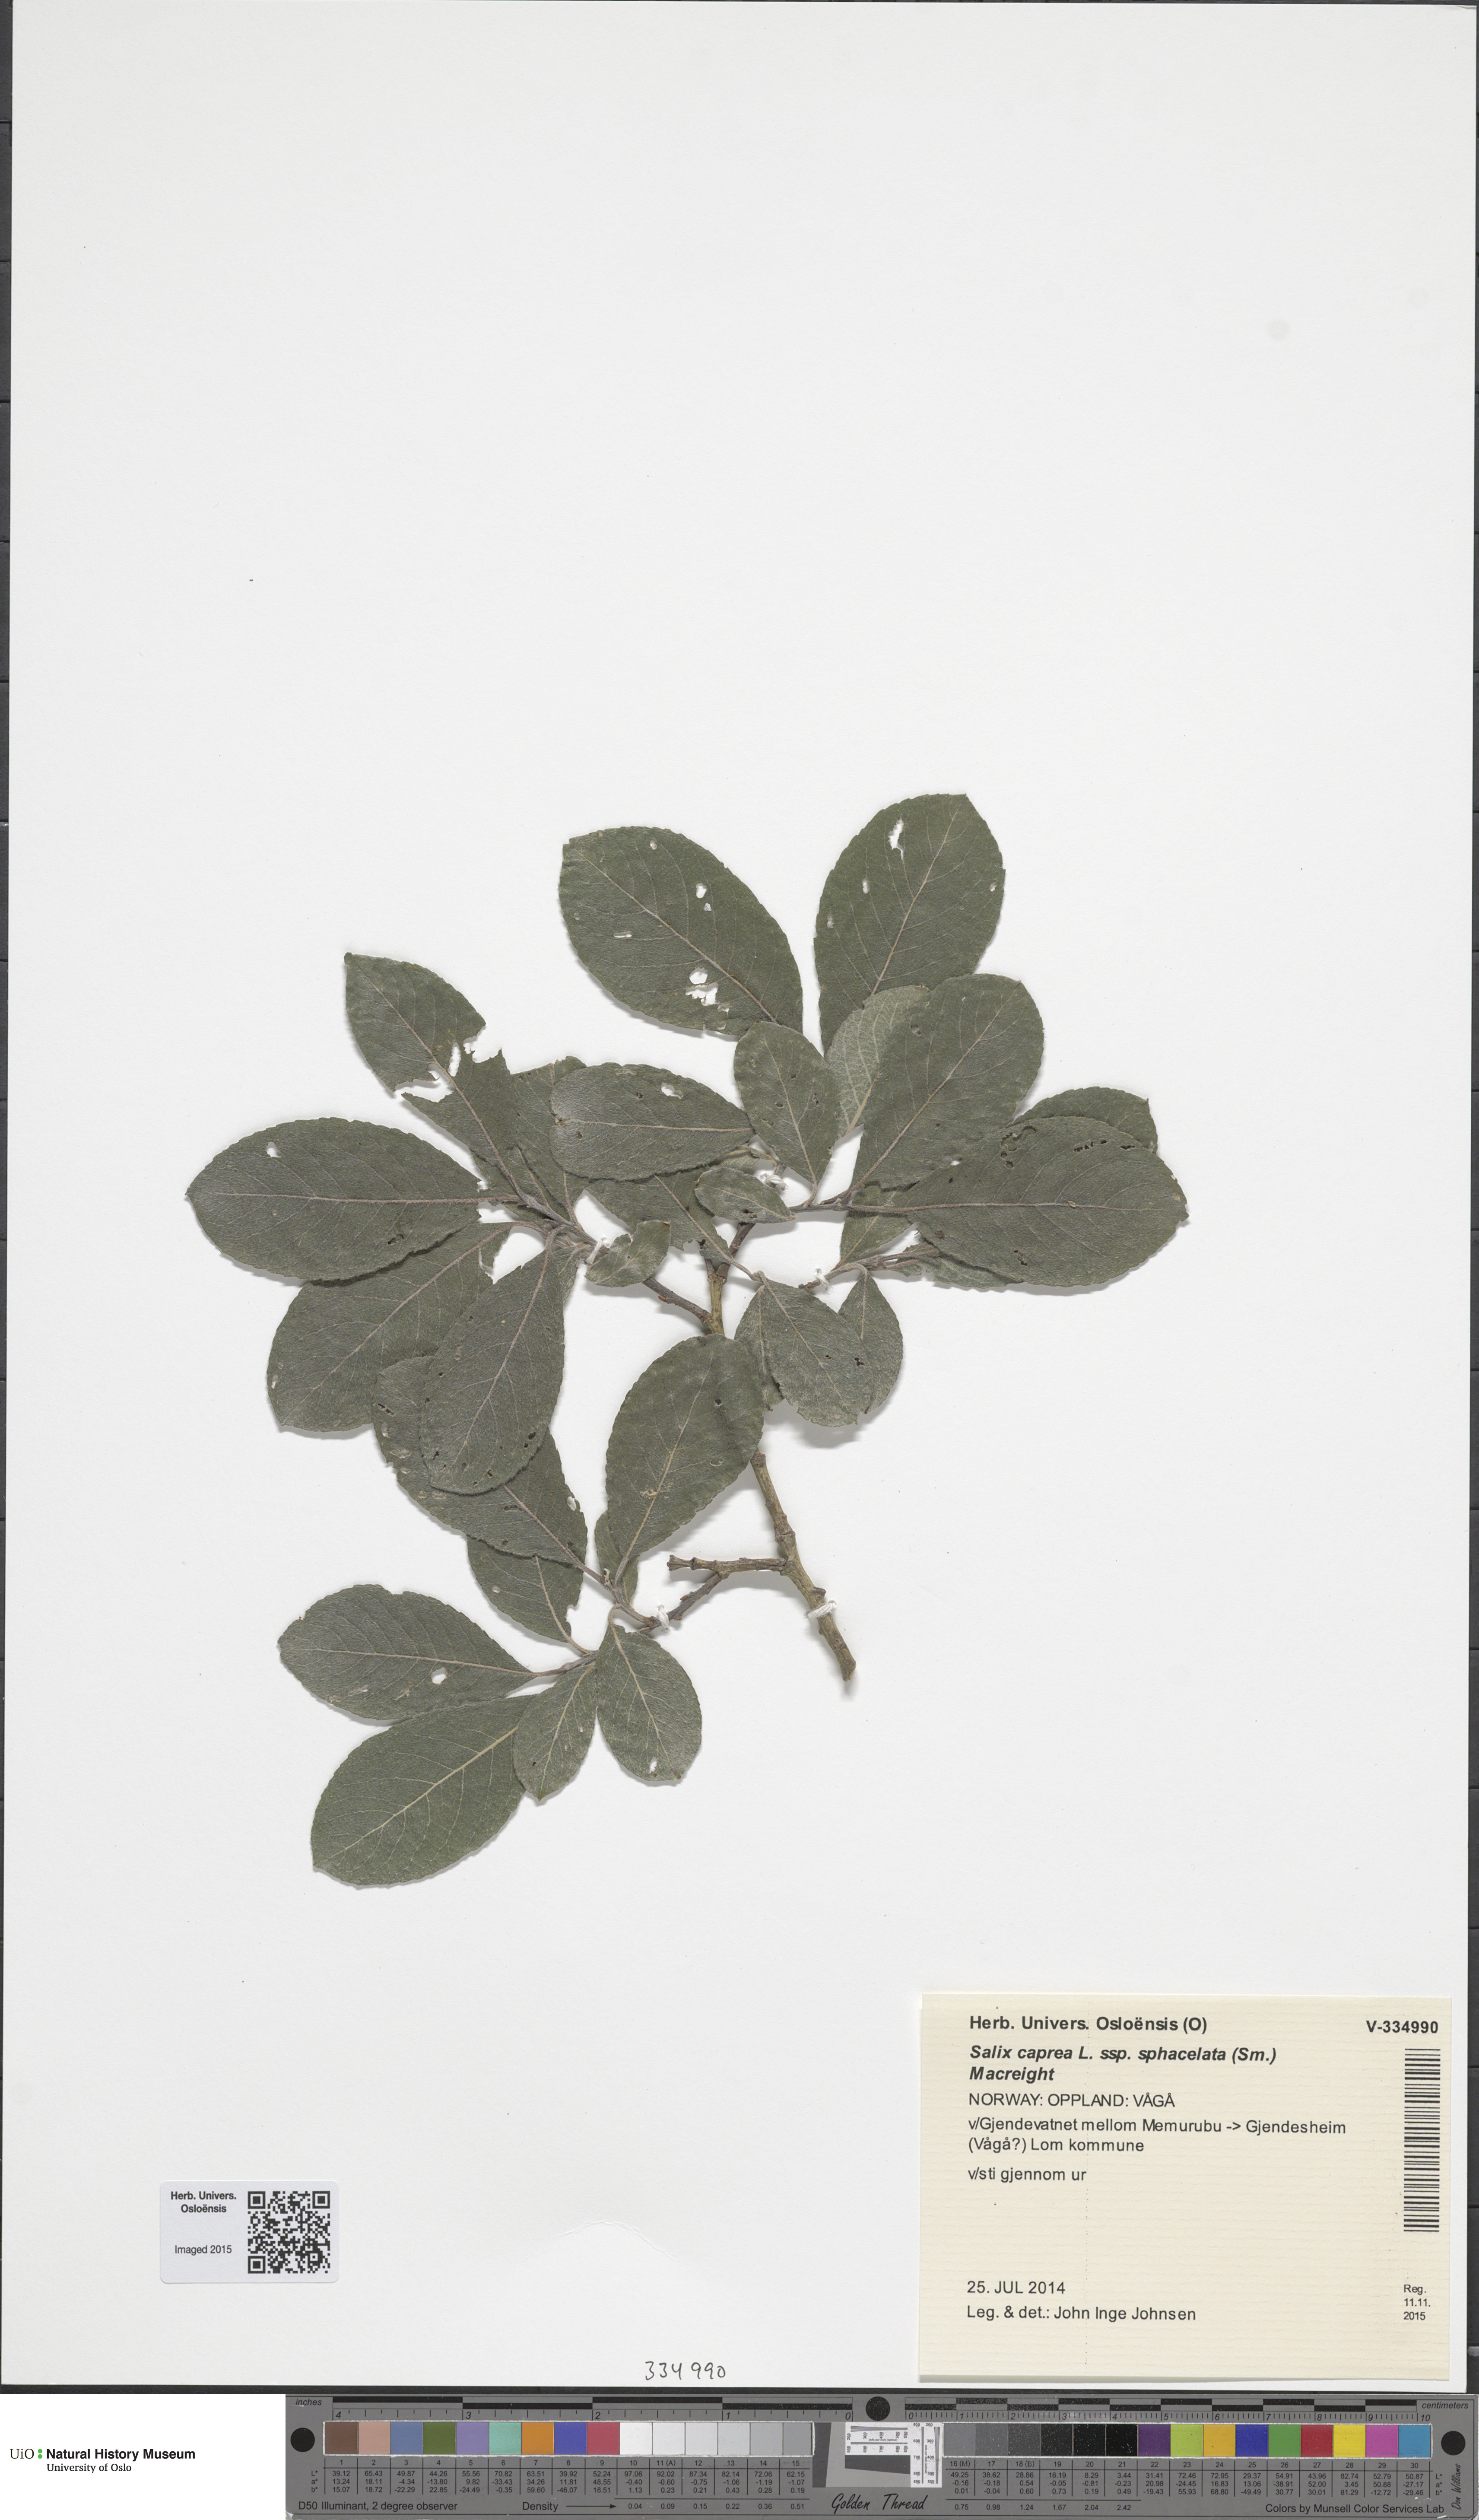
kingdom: Plantae
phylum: Tracheophyta
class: Magnoliopsida
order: Malpighiales
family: Salicaceae
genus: Salix
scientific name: Salix caprea
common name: Goat willow
